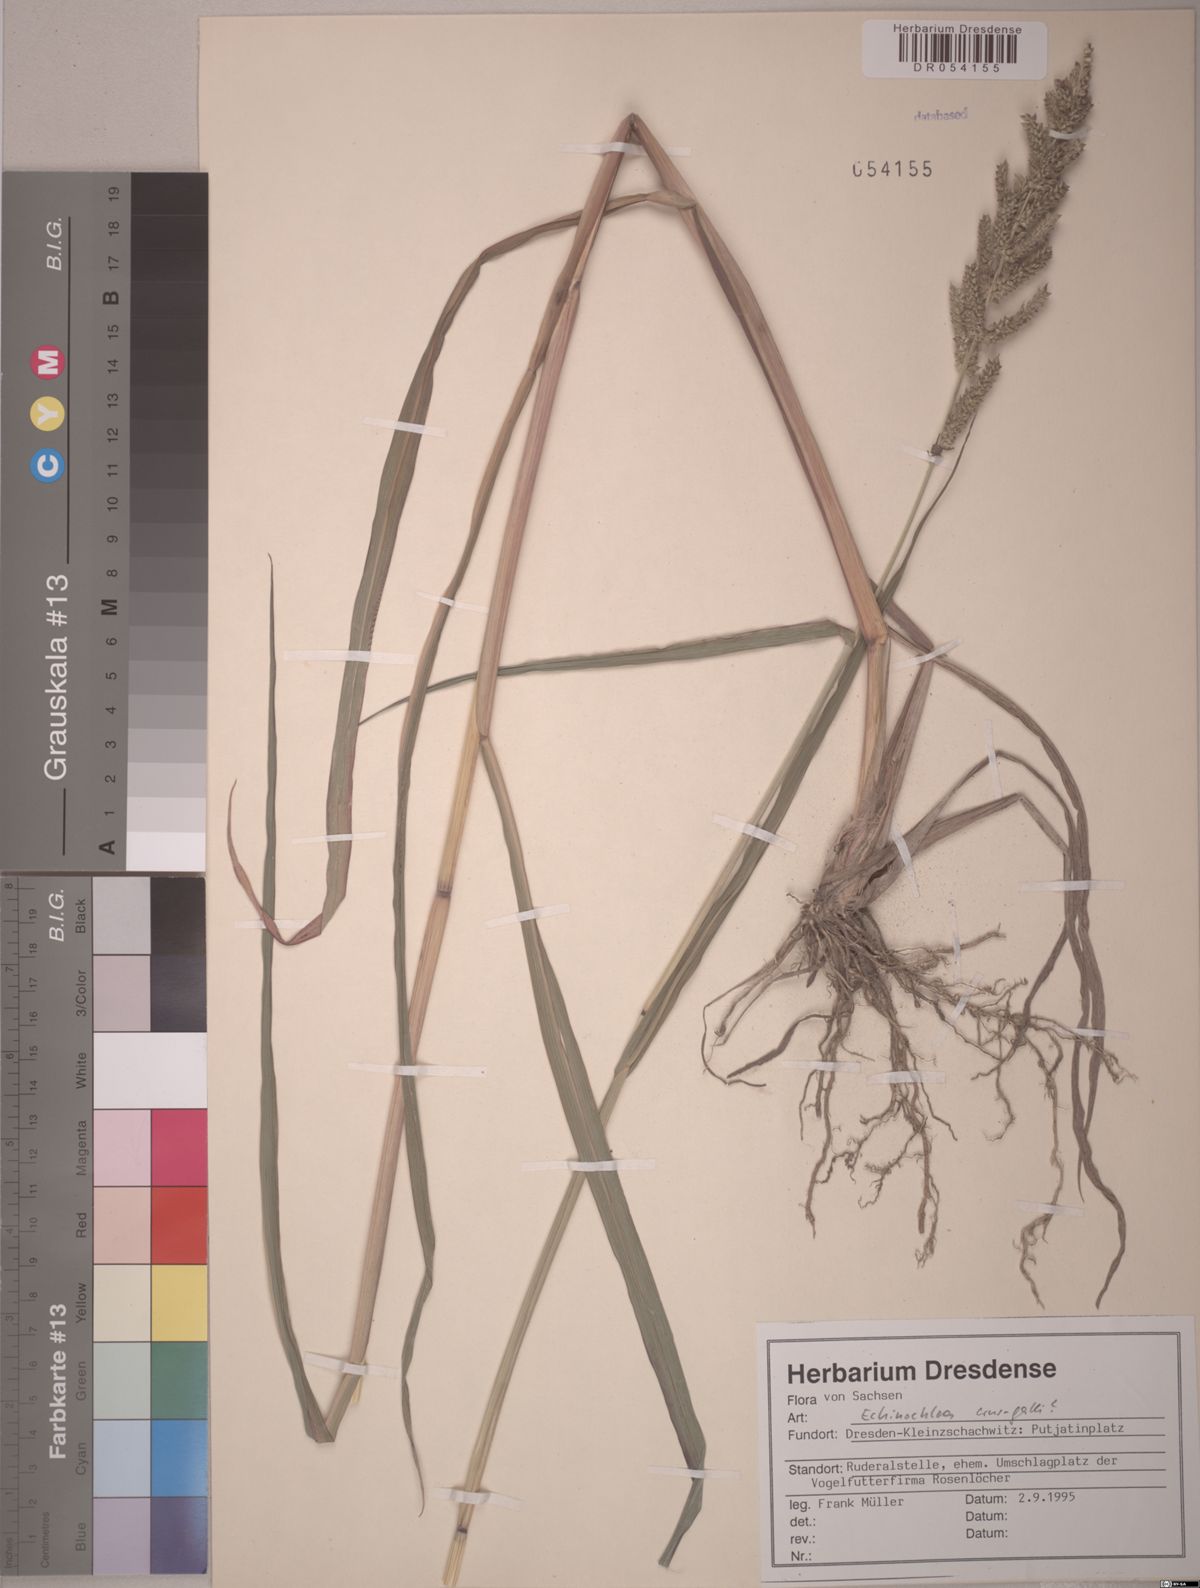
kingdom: Plantae
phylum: Tracheophyta
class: Liliopsida
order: Poales
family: Poaceae
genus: Echinochloa
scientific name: Echinochloa crus-galli
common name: Cockspur
